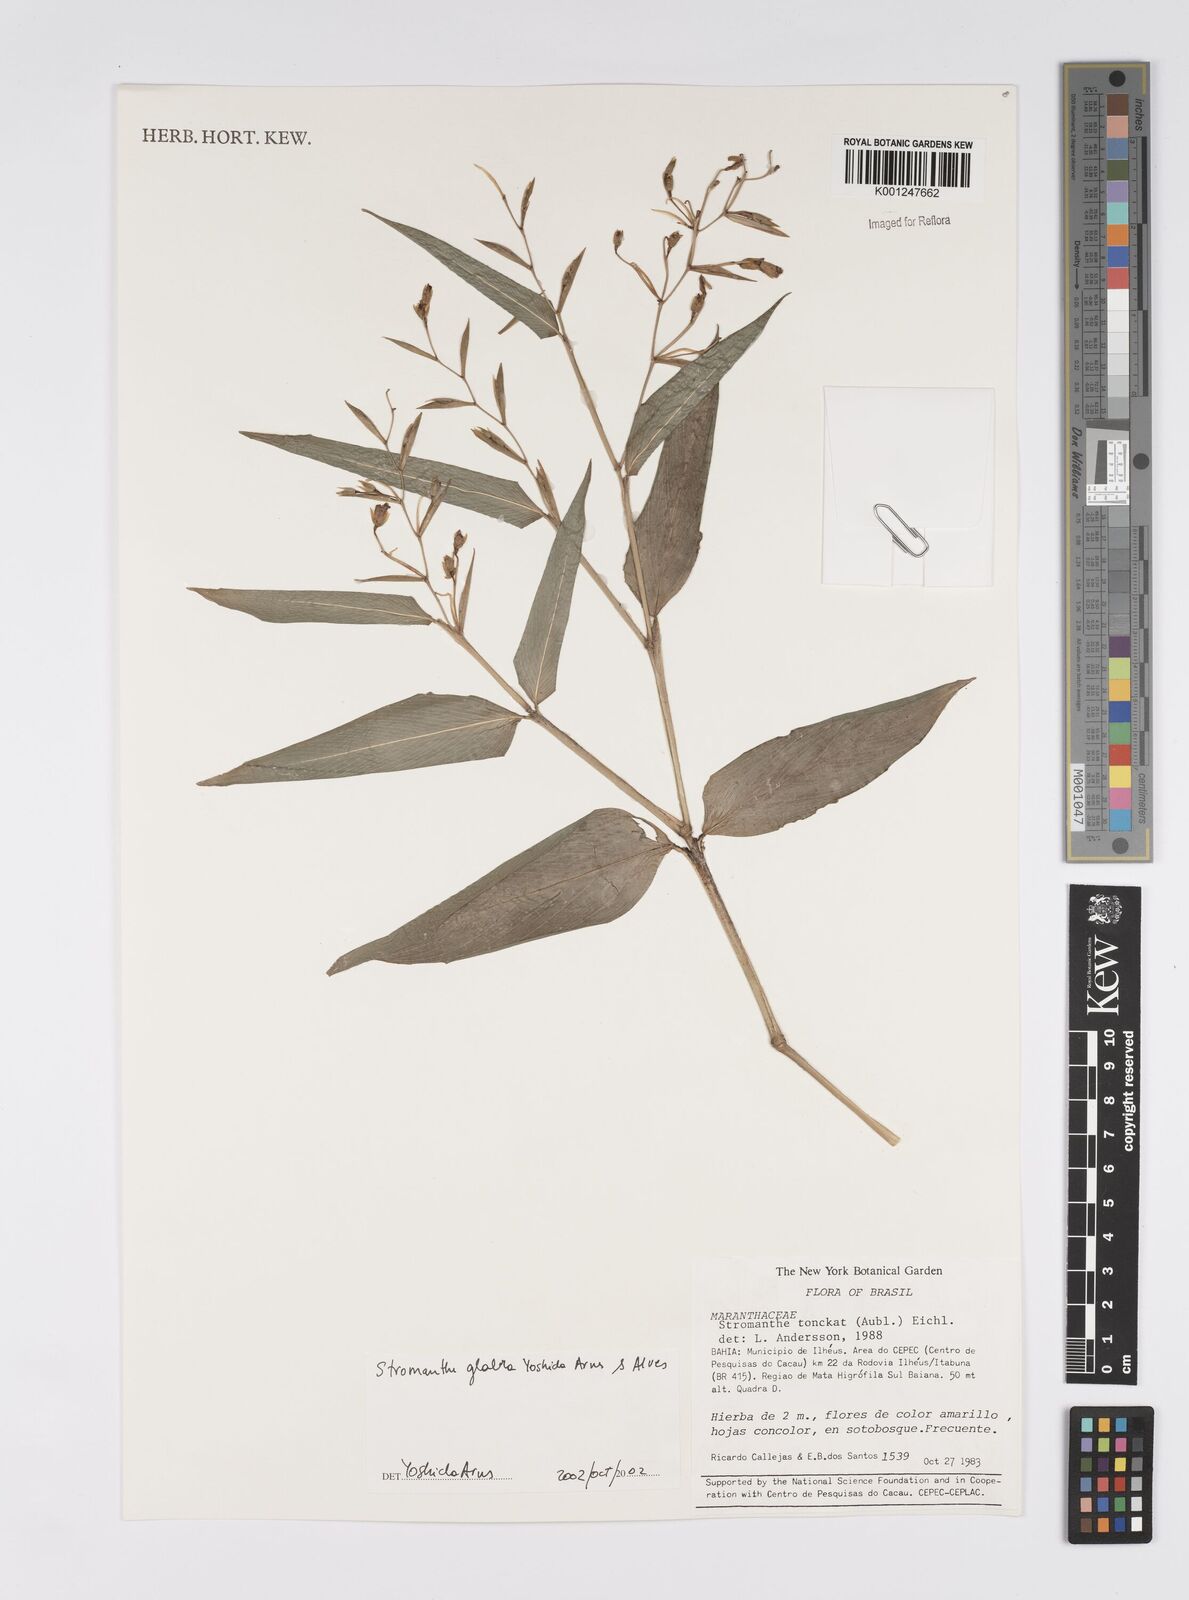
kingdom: Plantae
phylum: Tracheophyta
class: Liliopsida
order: Zingiberales
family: Marantaceae
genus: Stromanthe
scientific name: Stromanthe tonckat
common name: Stromanthe
